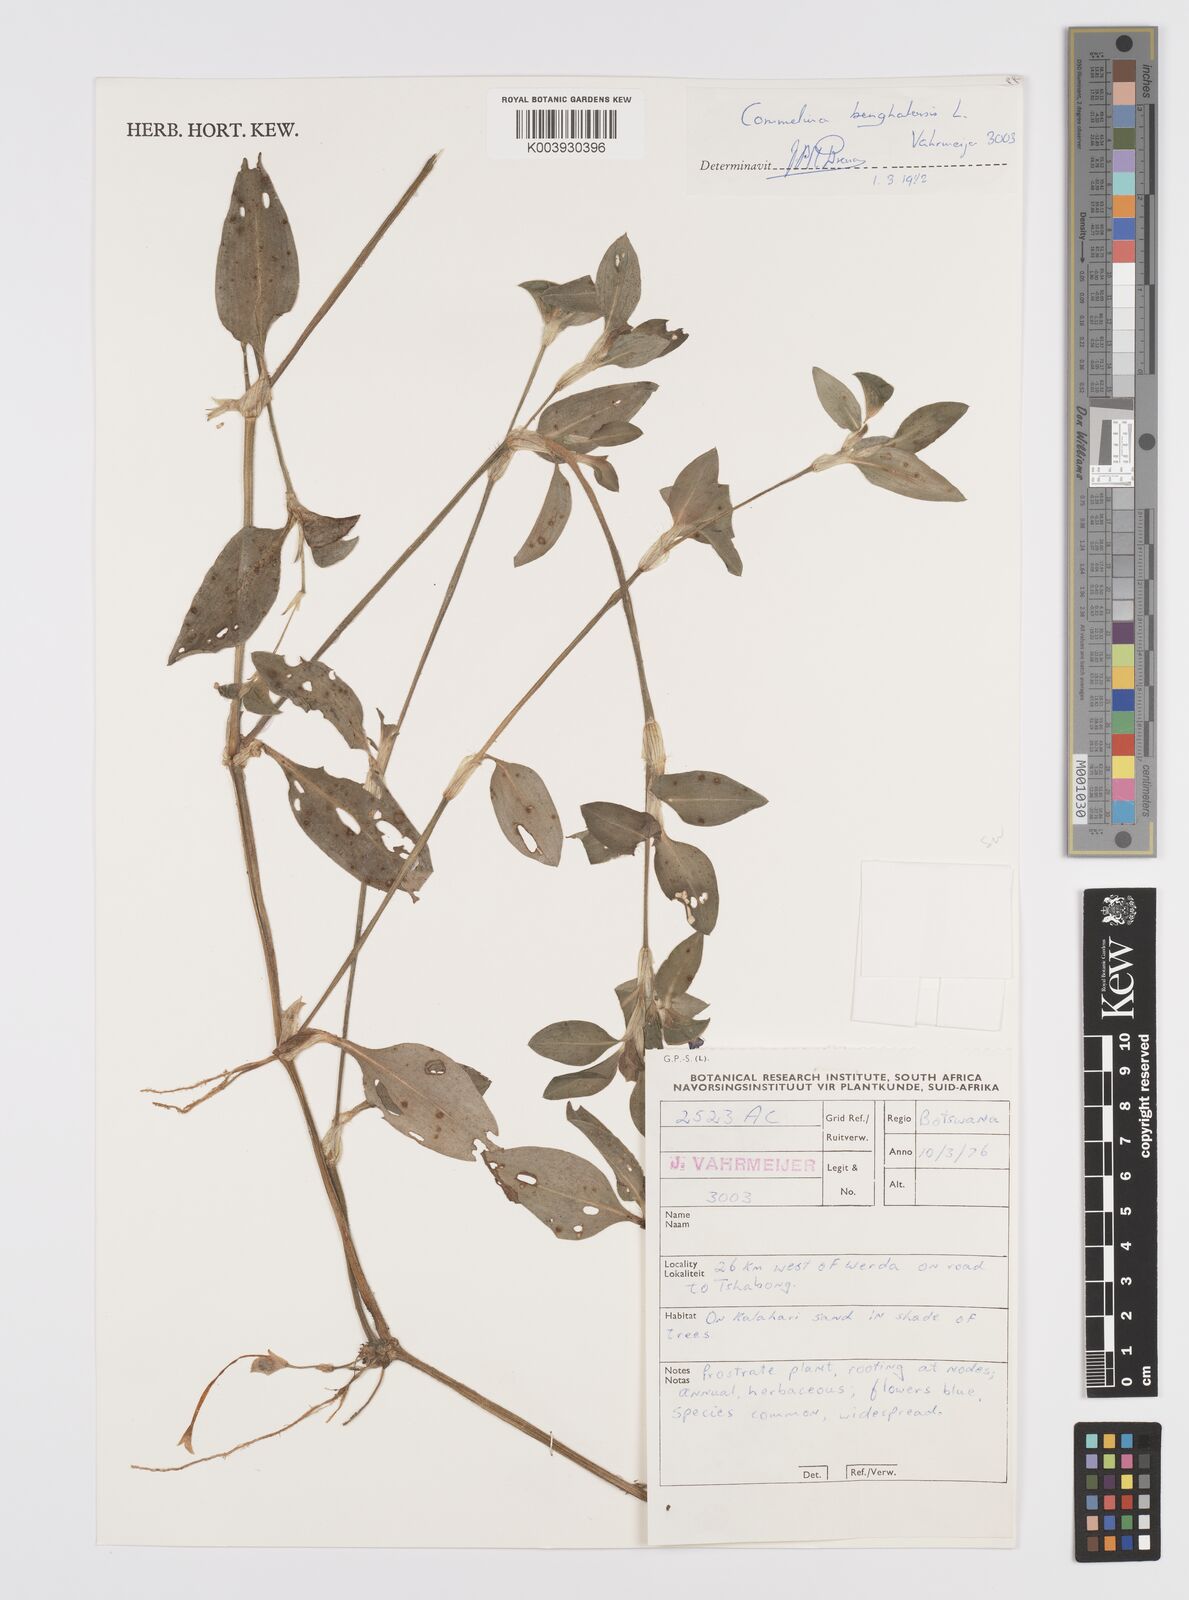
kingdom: Plantae
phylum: Tracheophyta
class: Liliopsida
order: Commelinales
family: Commelinaceae
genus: Commelina
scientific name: Commelina benghalensis
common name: Jio
